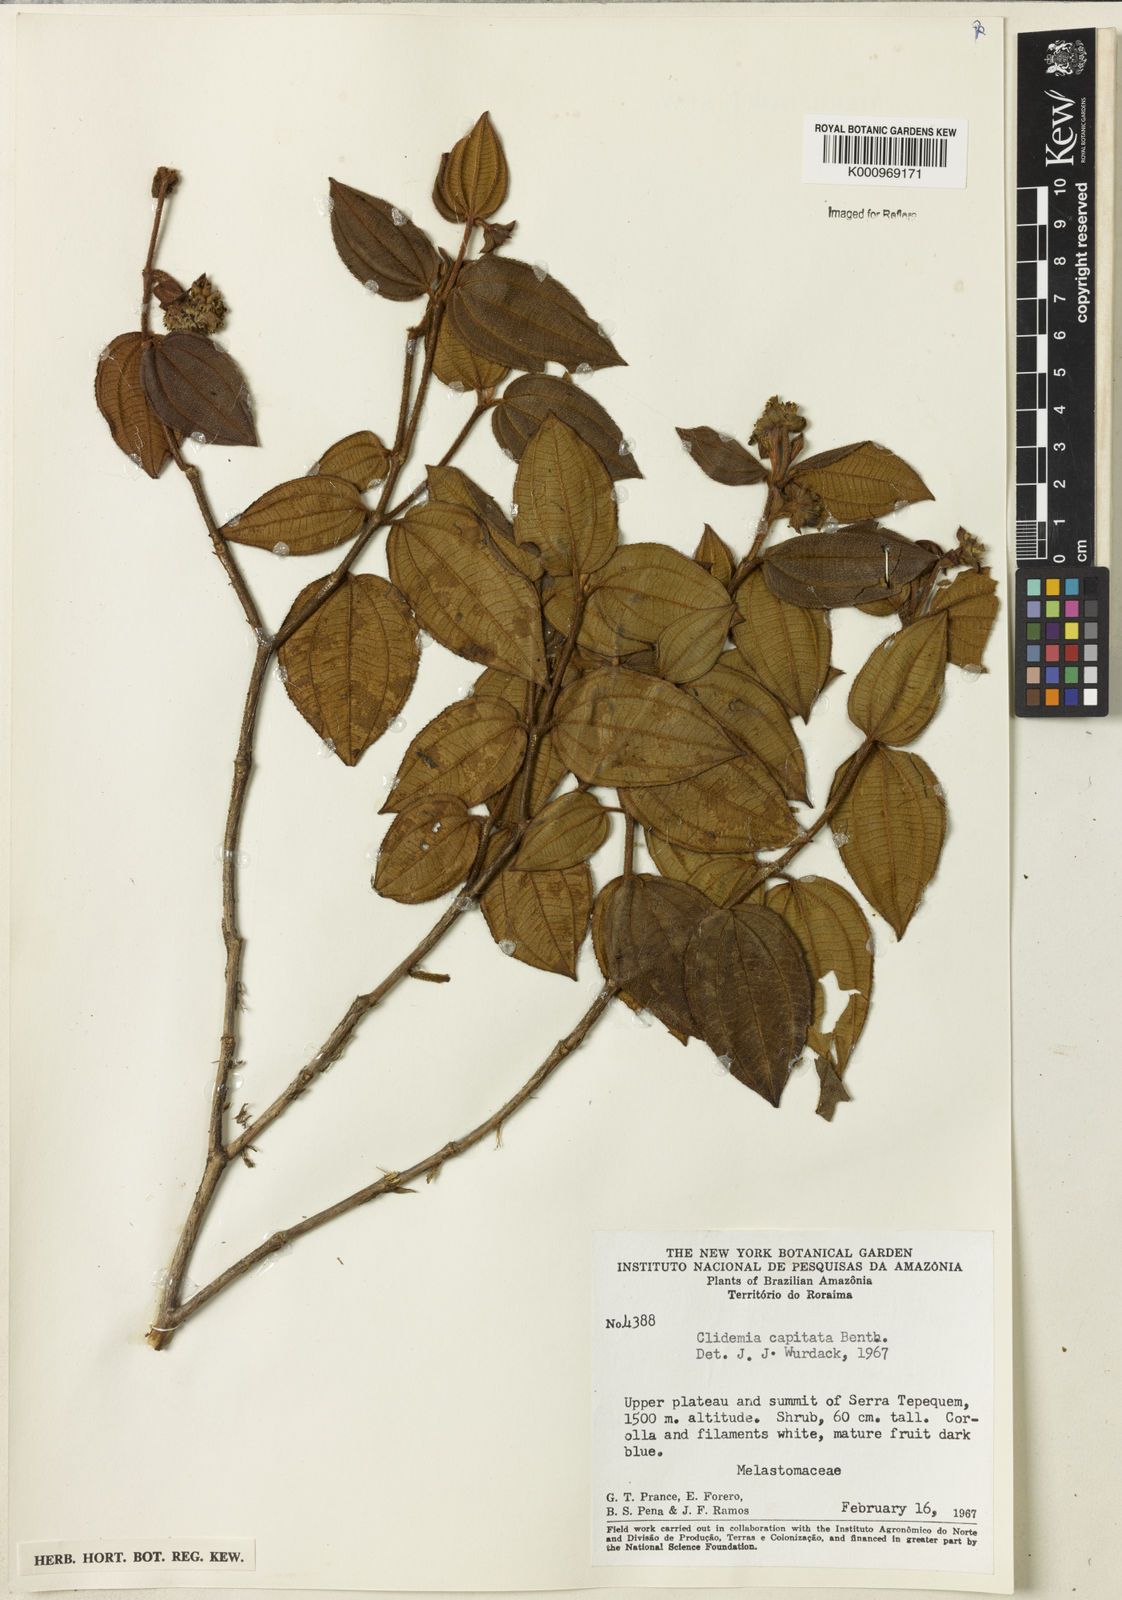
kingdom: Plantae
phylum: Tracheophyta
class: Magnoliopsida
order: Myrtales
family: Melastomataceae
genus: Miconia
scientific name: Miconia benthamii
